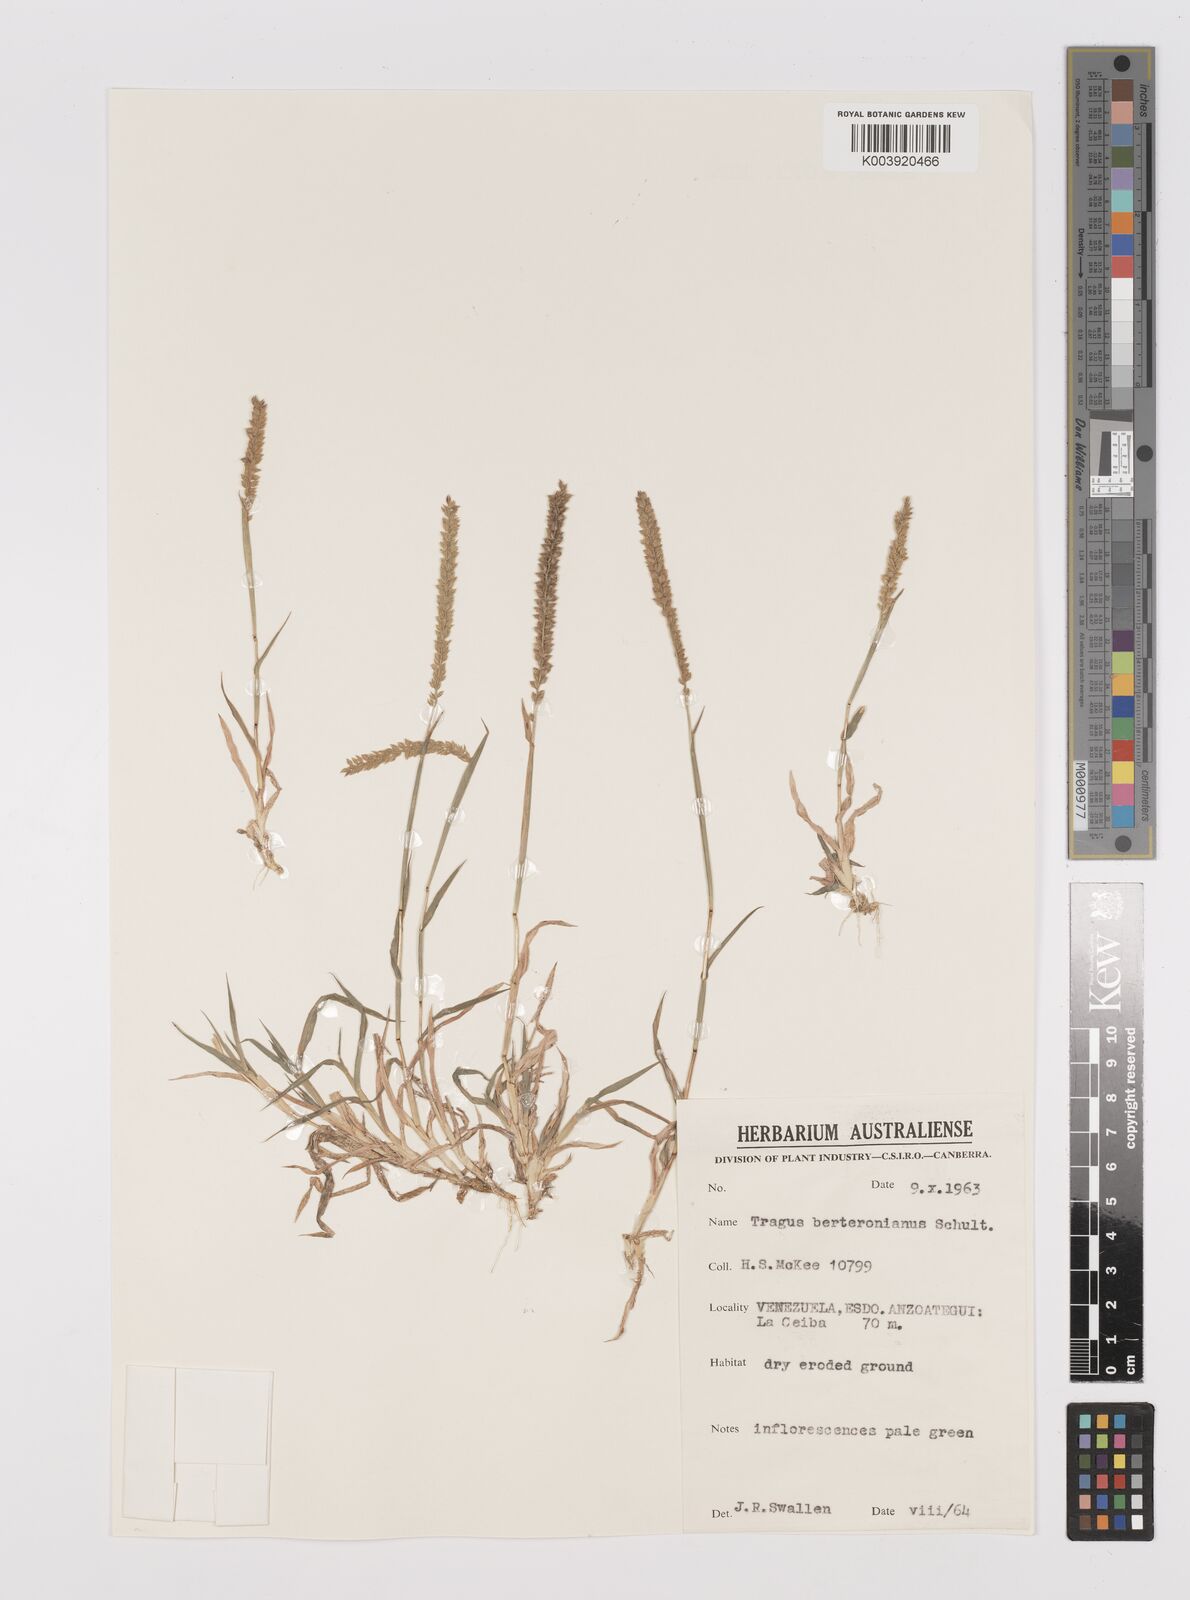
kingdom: Plantae
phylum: Tracheophyta
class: Liliopsida
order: Poales
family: Poaceae
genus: Tragus
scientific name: Tragus berteronianus
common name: African bur-grass
